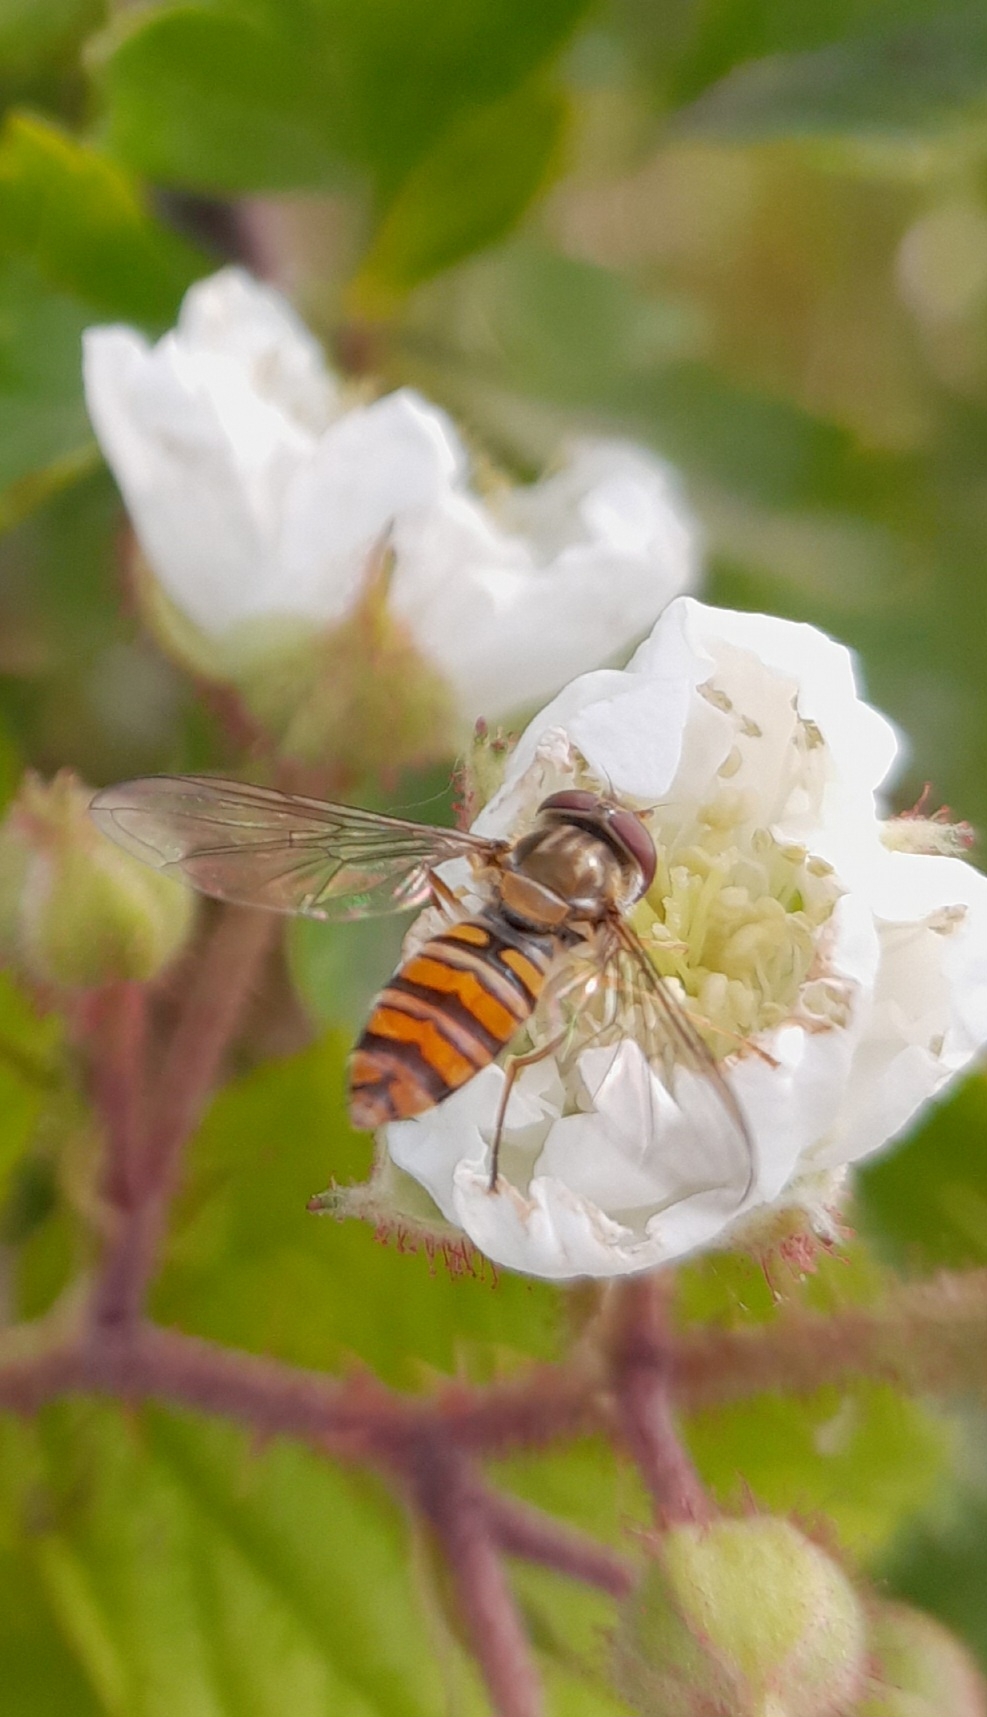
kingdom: Animalia
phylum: Arthropoda
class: Insecta
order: Diptera
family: Syrphidae
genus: Episyrphus
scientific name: Episyrphus balteatus
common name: Dobbeltbåndet svirreflue
